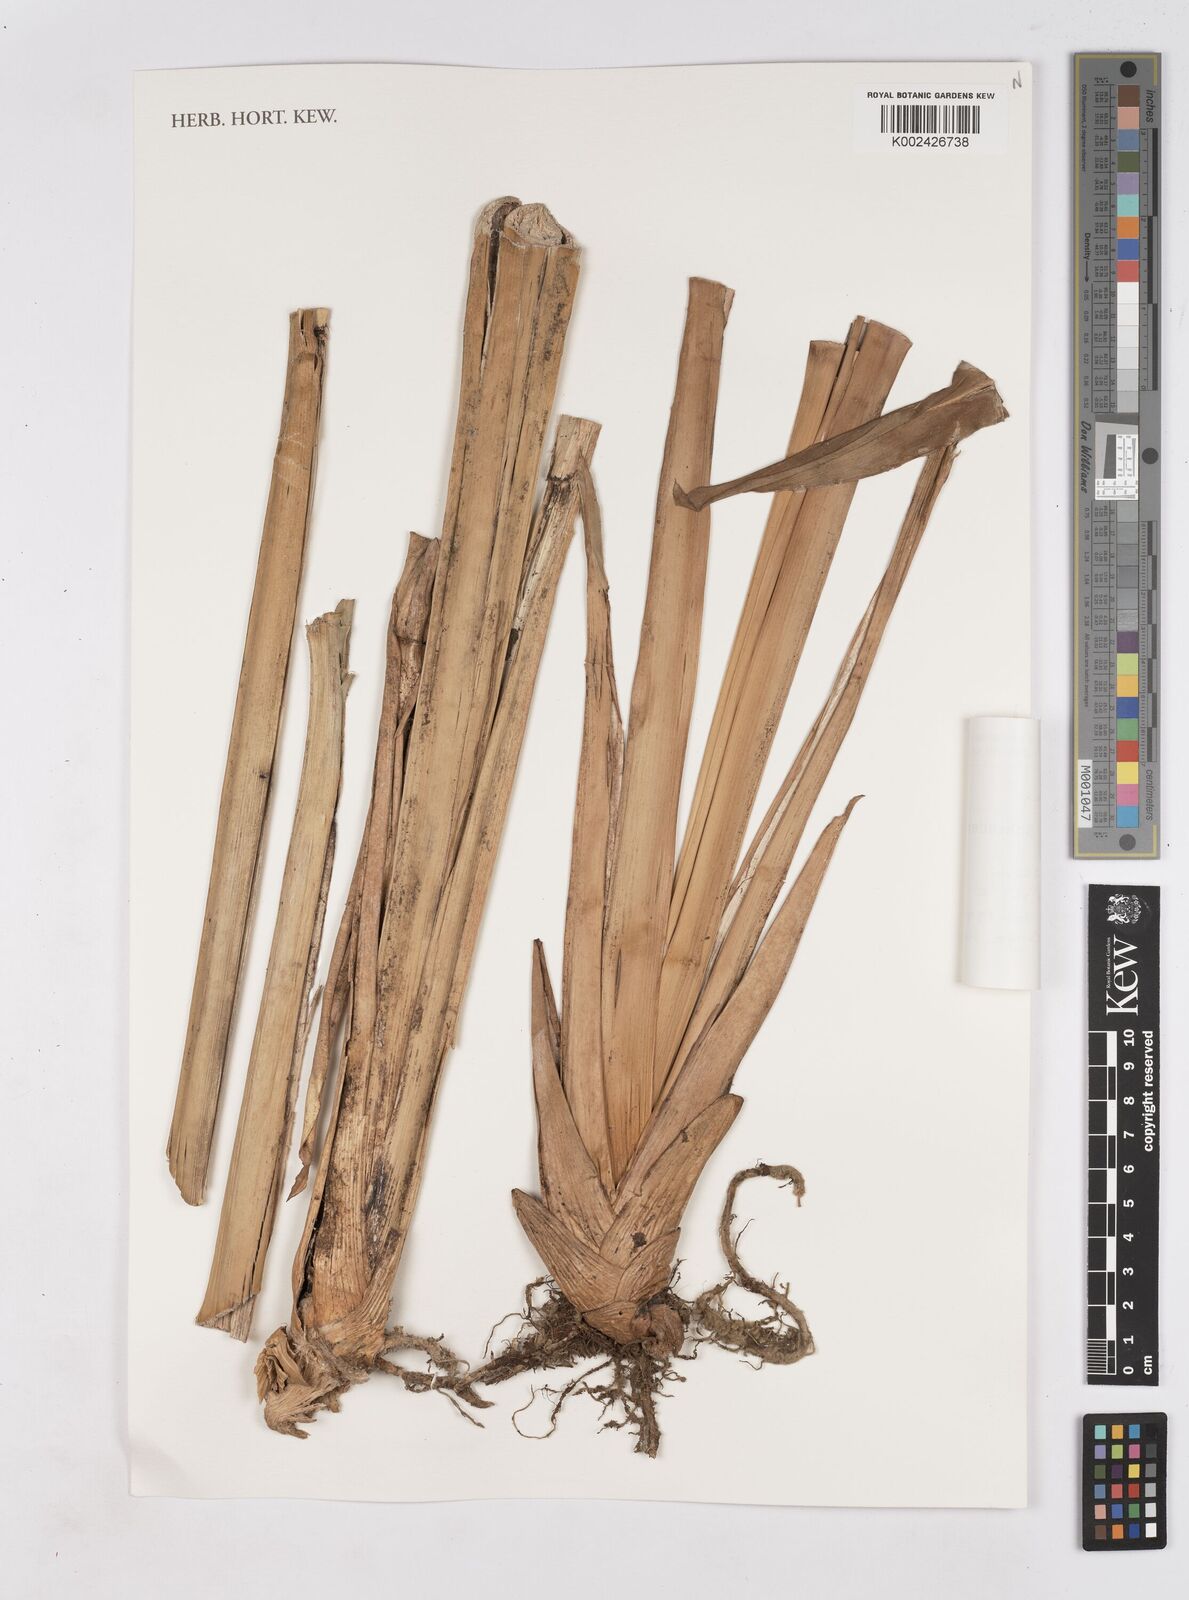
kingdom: Plantae
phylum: Tracheophyta
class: Liliopsida
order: Zingiberales
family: Zingiberaceae
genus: Riedelia
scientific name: Riedelia
